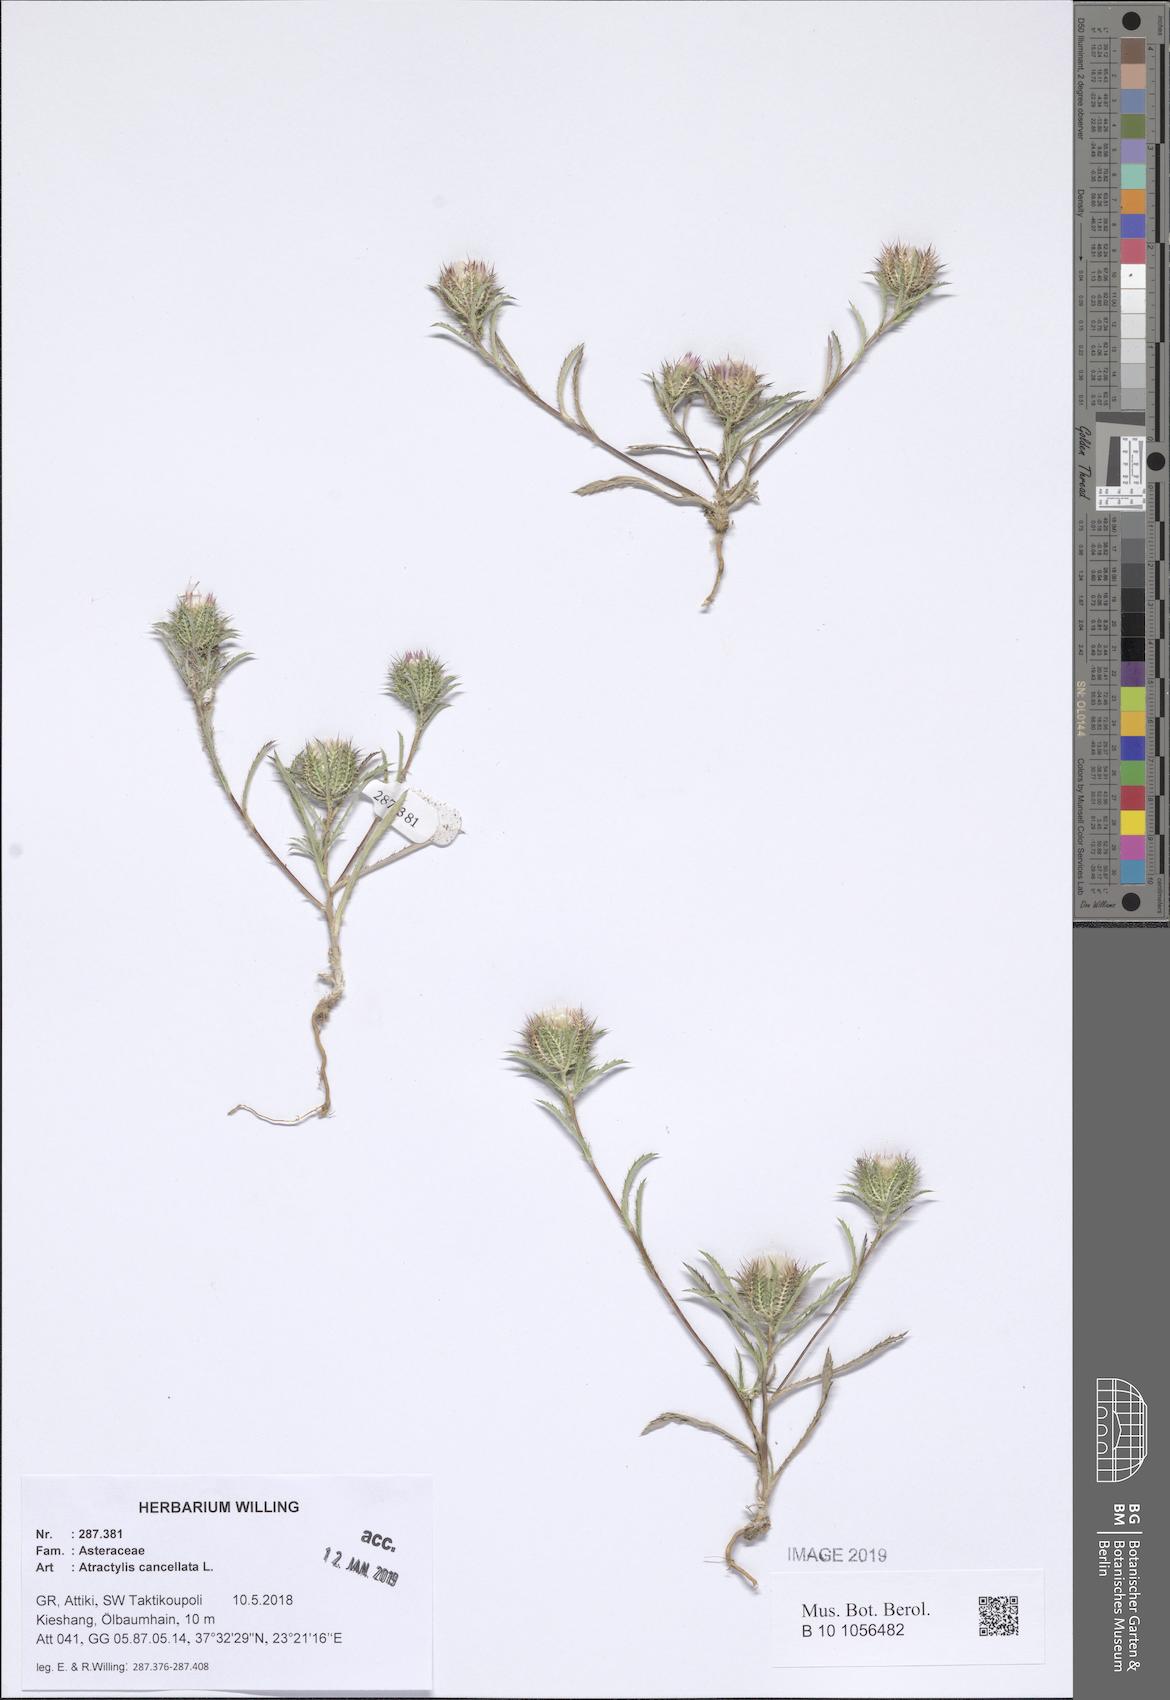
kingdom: Plantae
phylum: Tracheophyta
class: Magnoliopsida
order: Asterales
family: Asteraceae
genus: Atractylis
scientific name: Atractylis cancellata
